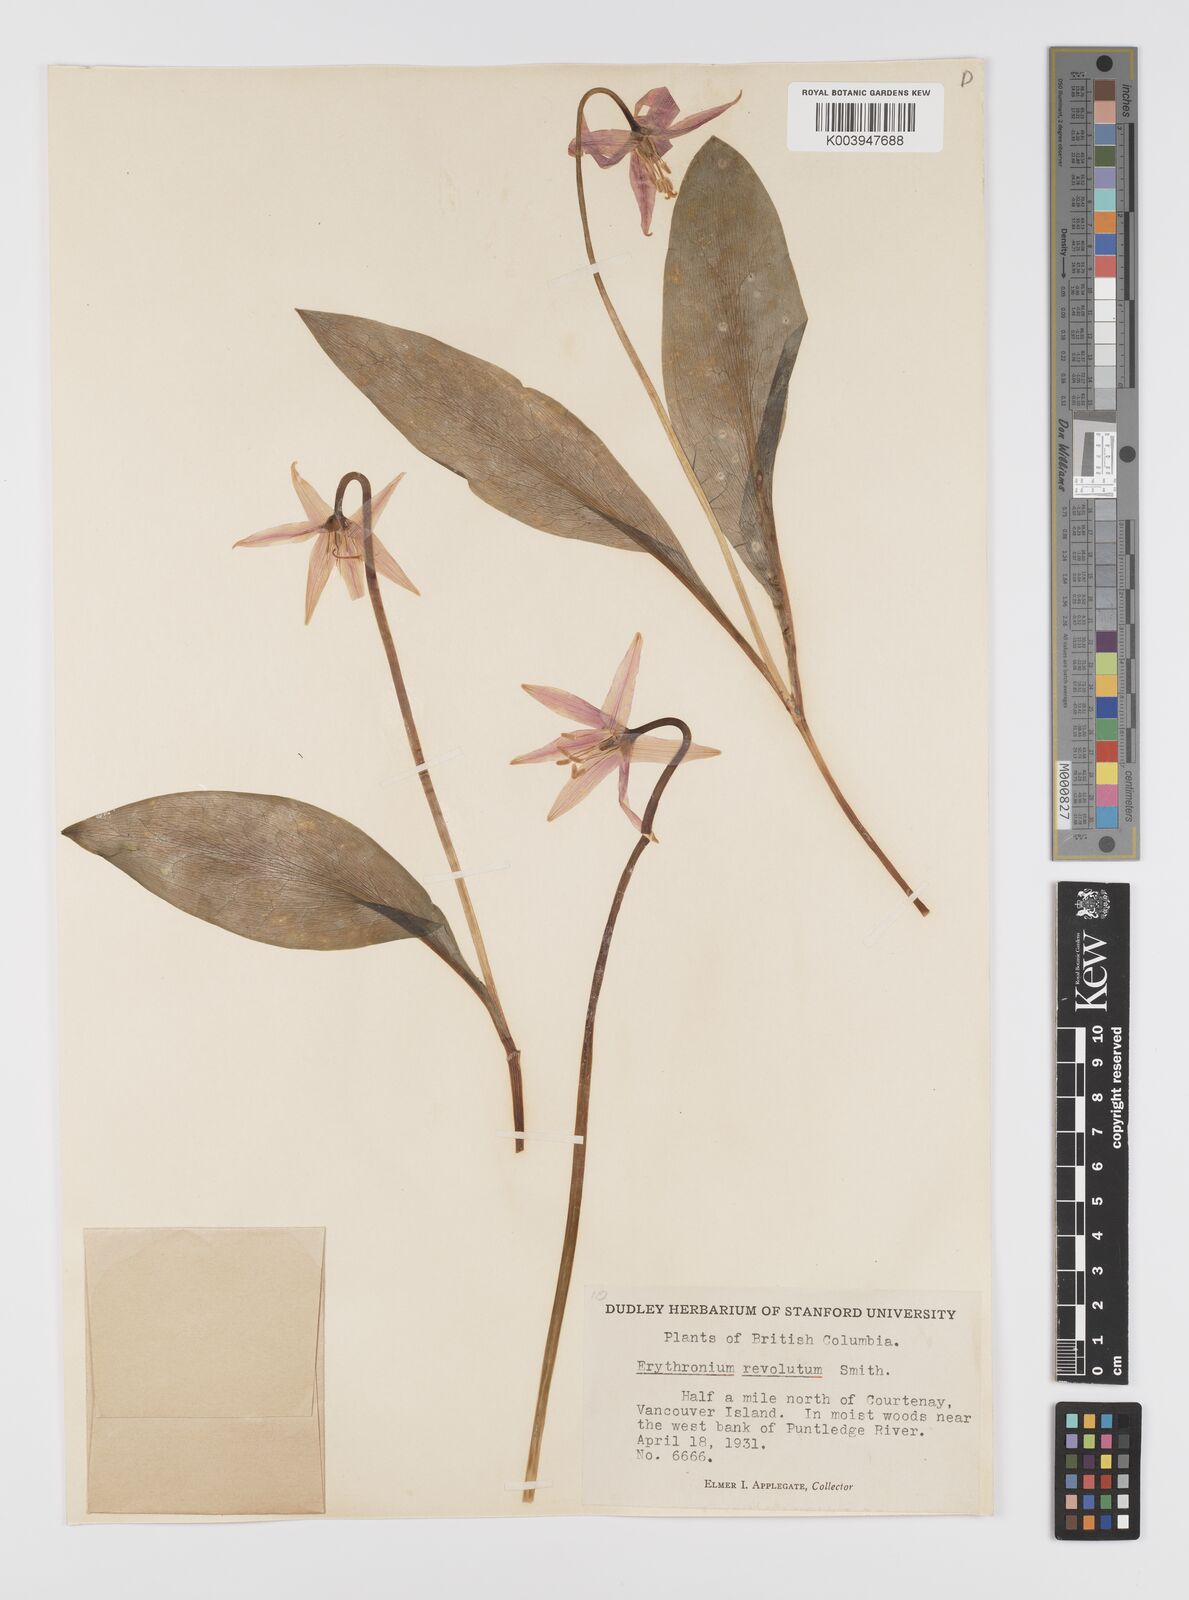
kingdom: Plantae
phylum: Tracheophyta
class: Liliopsida
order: Liliales
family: Liliaceae
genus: Erythronium
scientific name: Erythronium purpurascens
